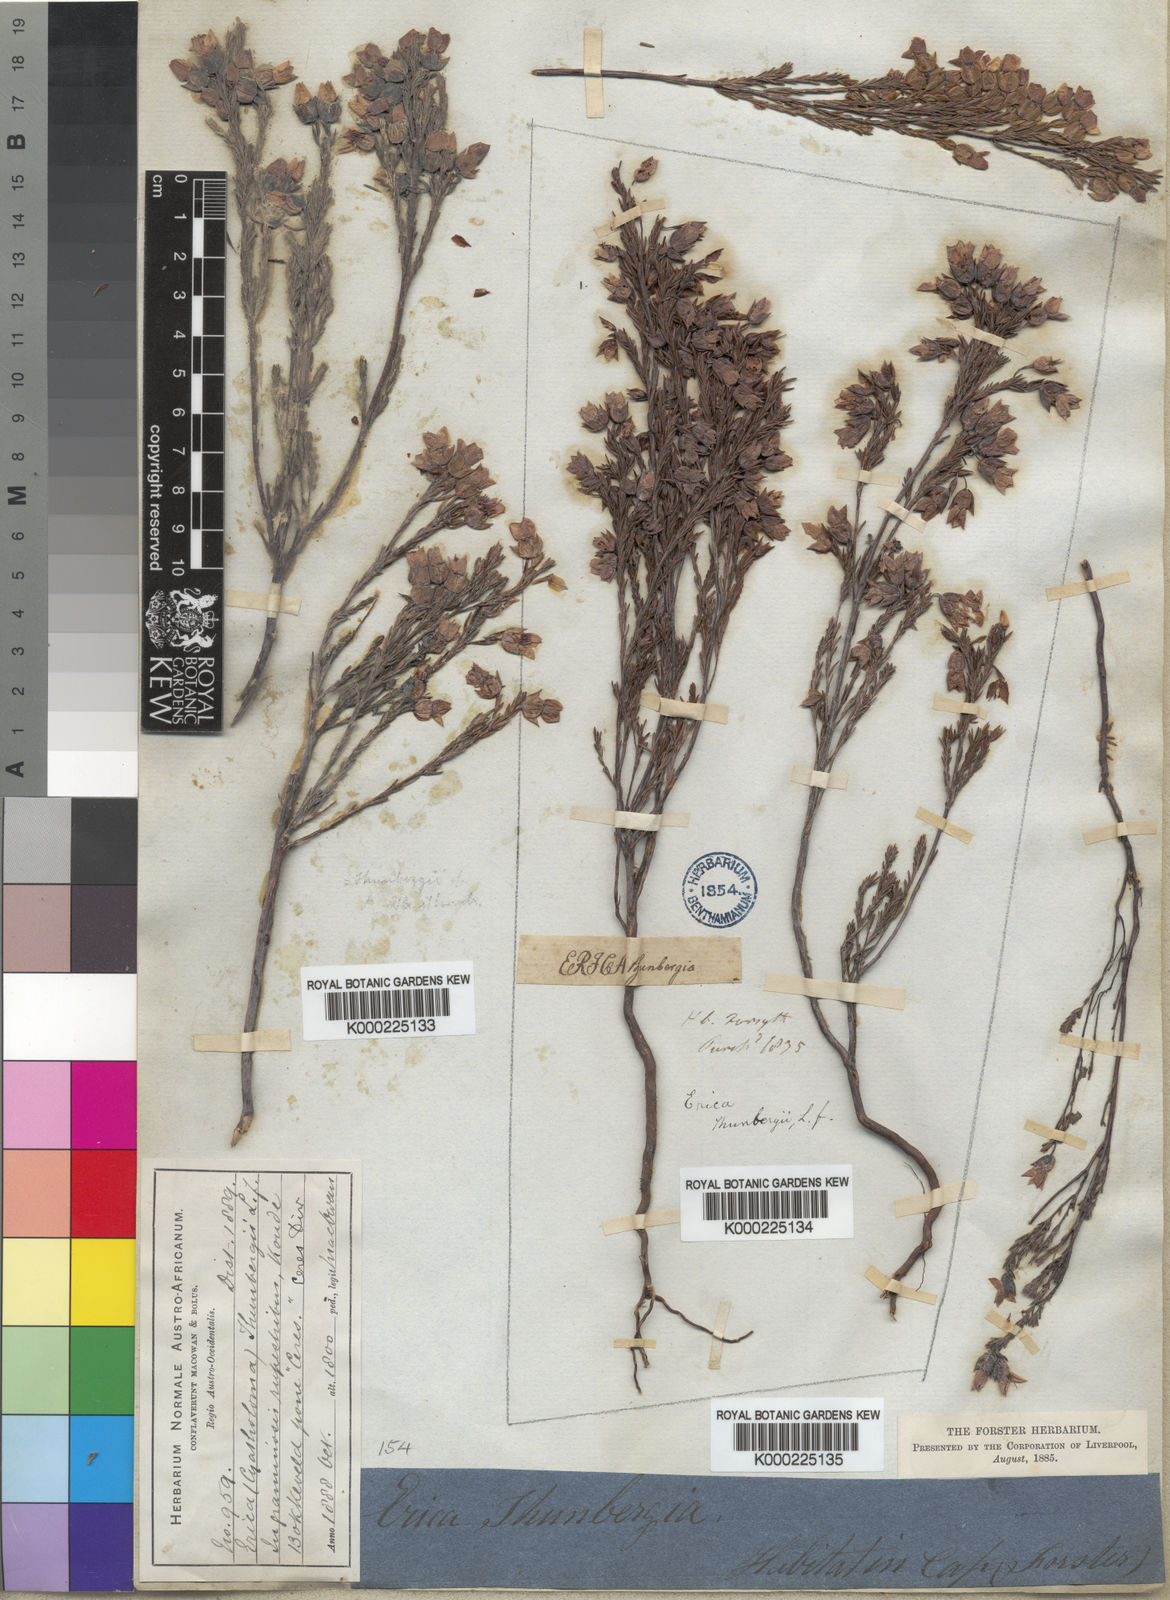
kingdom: Plantae
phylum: Tracheophyta
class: Magnoliopsida
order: Ericales
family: Ericaceae
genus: Erica
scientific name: Erica thunbergii
